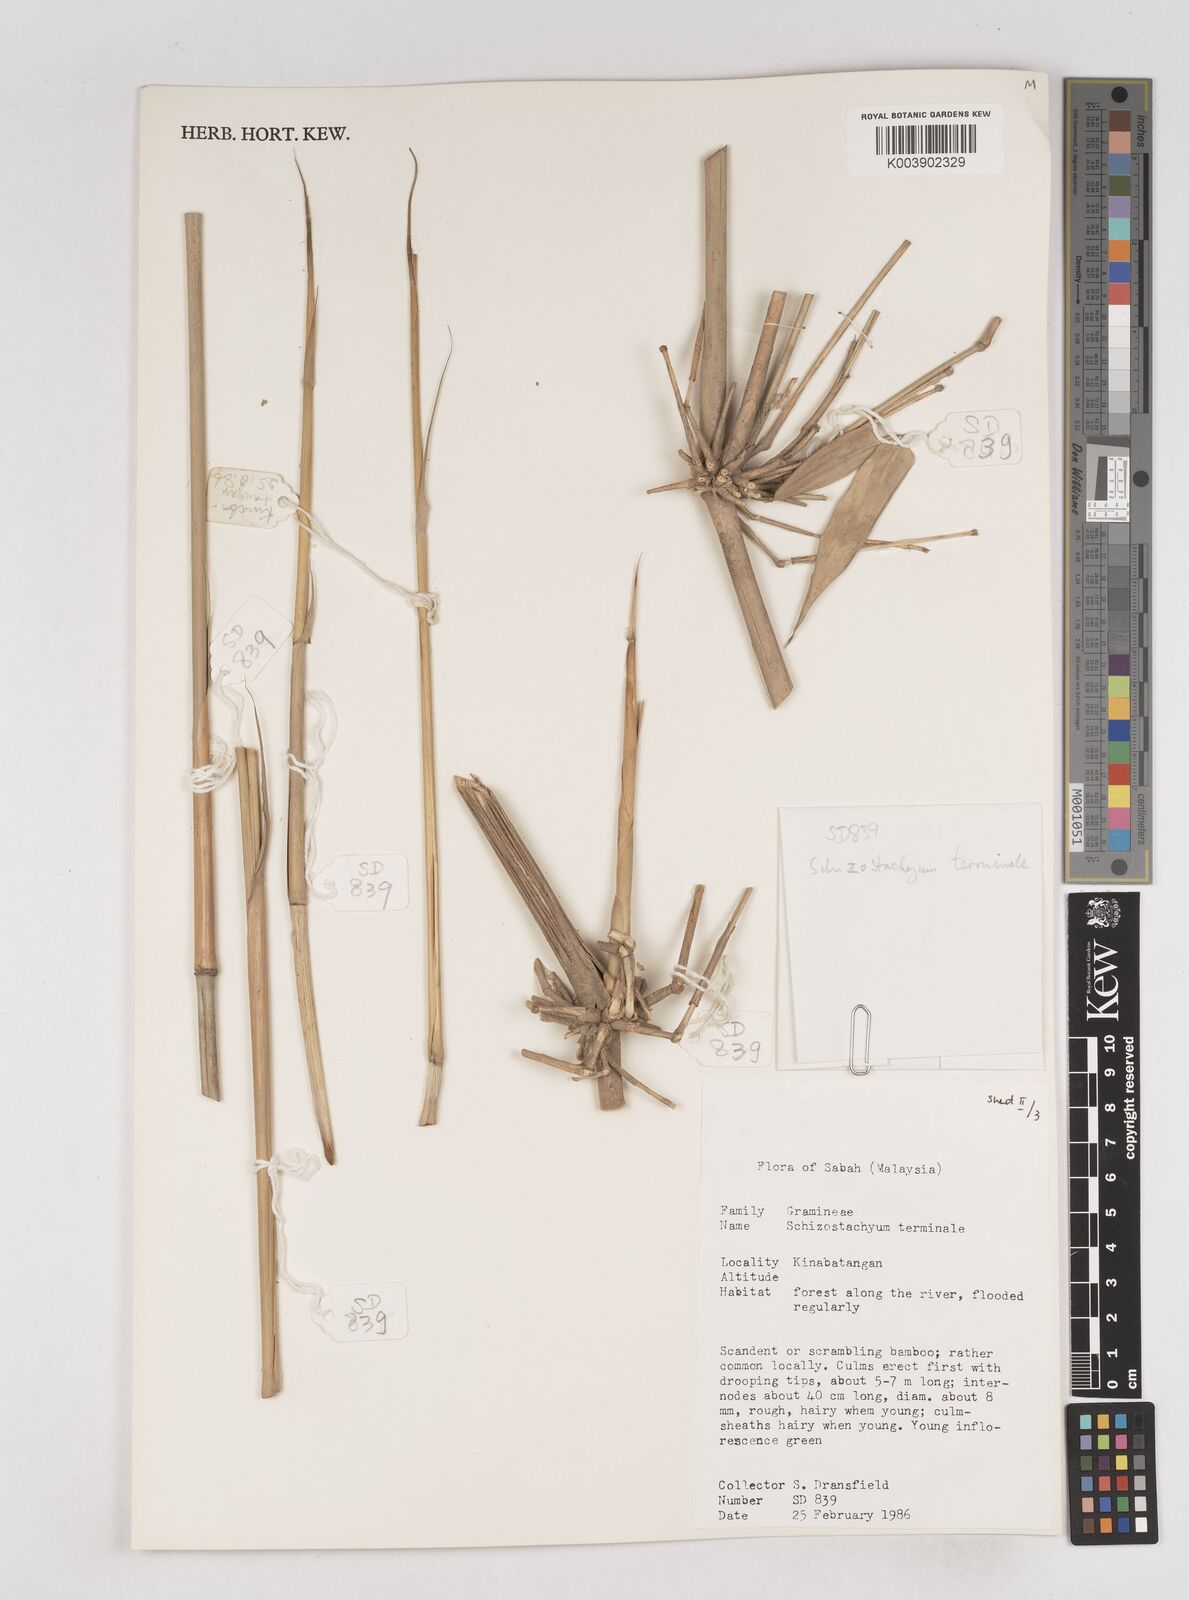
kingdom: Plantae
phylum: Tracheophyta
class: Liliopsida
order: Poales
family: Poaceae
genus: Schizostachyum
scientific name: Schizostachyum terminale
